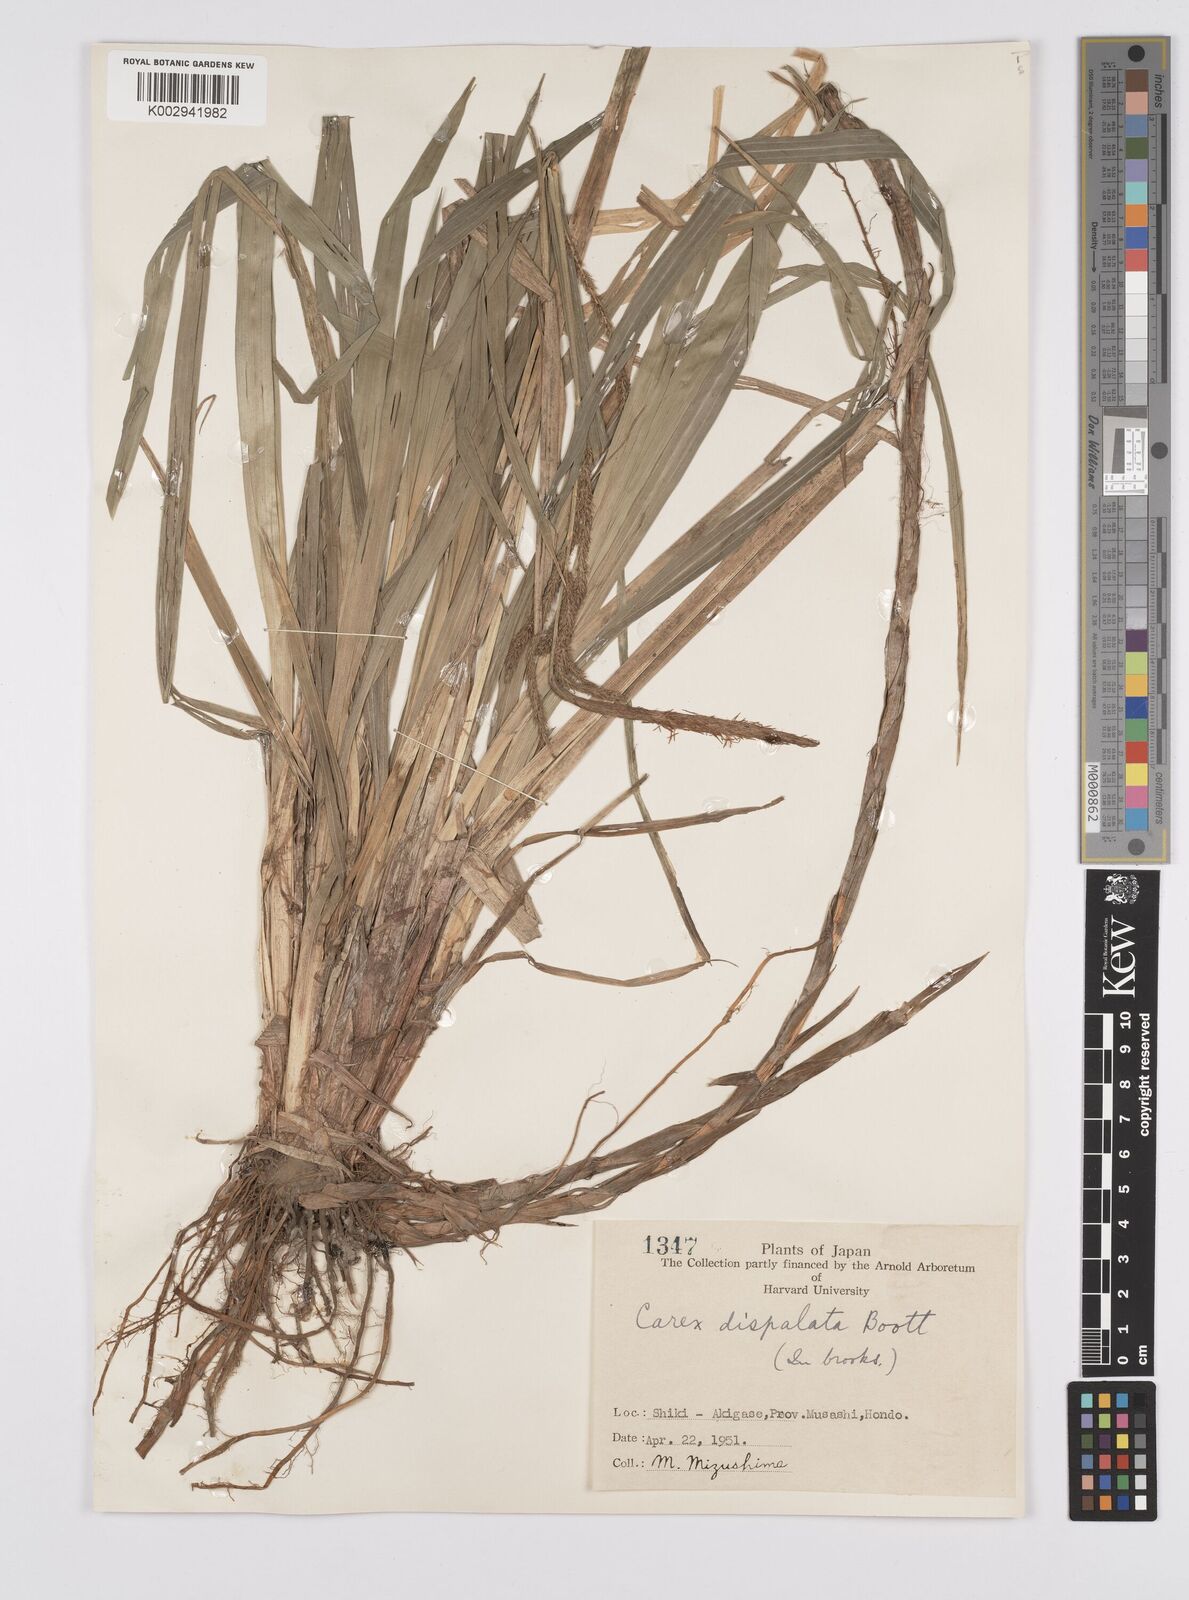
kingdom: Plantae
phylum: Tracheophyta
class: Liliopsida
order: Poales
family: Cyperaceae
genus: Carex
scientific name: Carex dispalata
